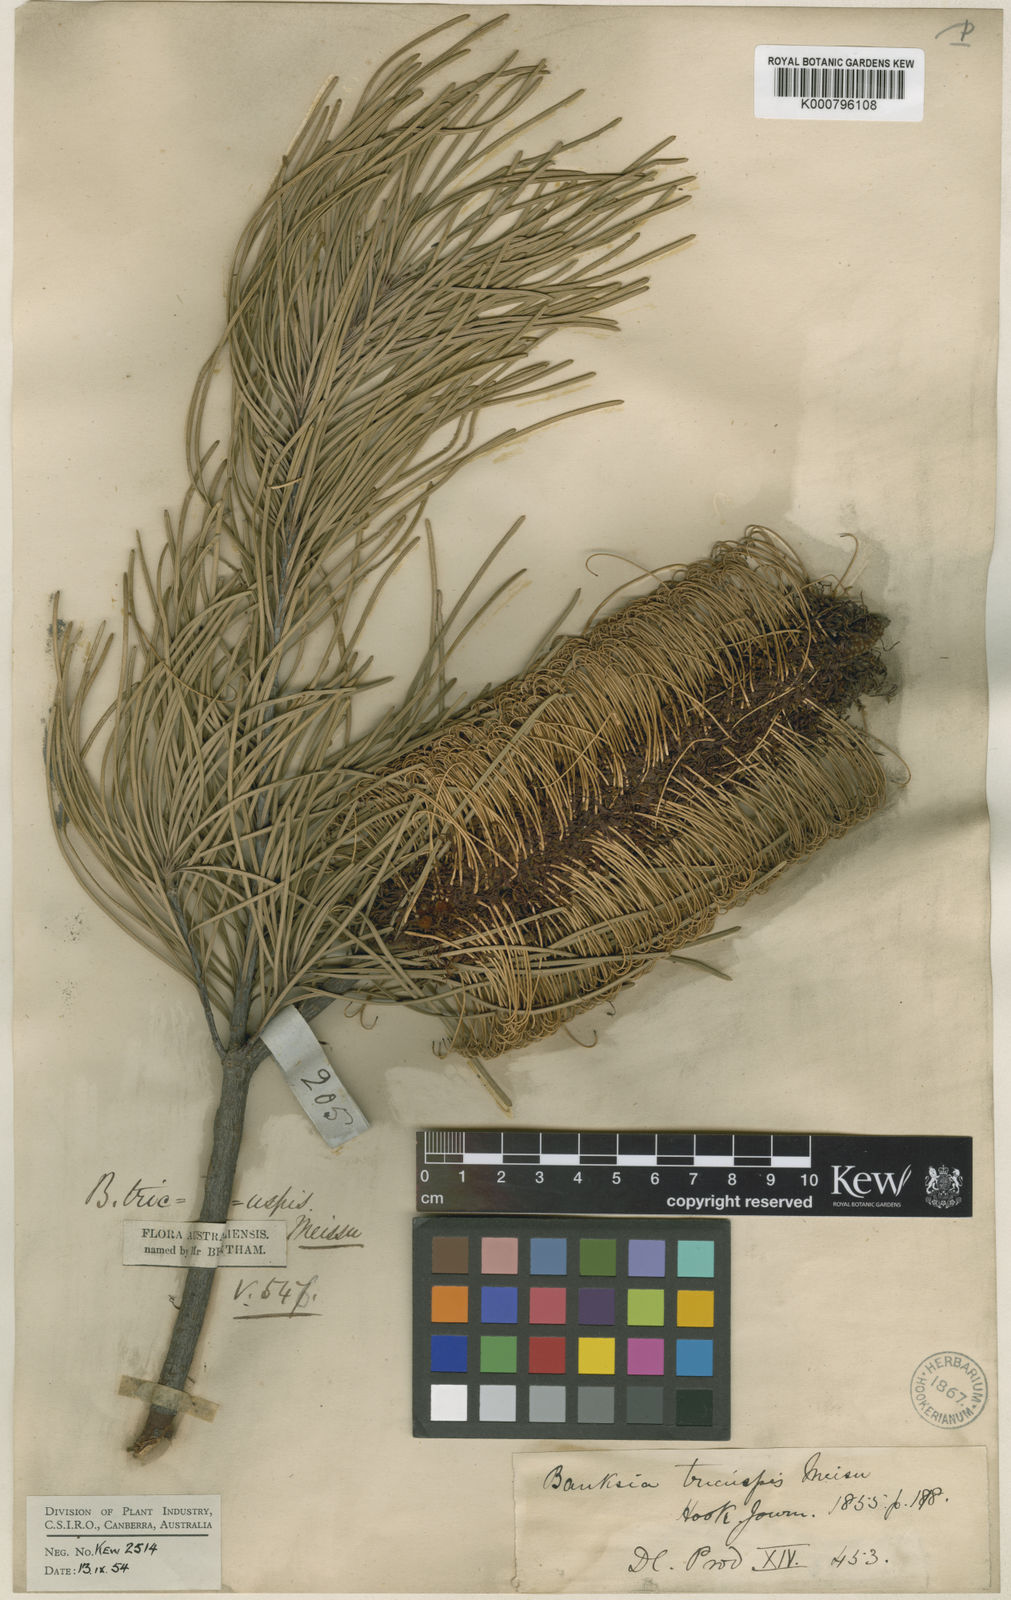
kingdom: Plantae
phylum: Tracheophyta
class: Magnoliopsida
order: Proteales
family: Proteaceae
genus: Banksia
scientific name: Banksia tricuspis
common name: Lesueur banksia
